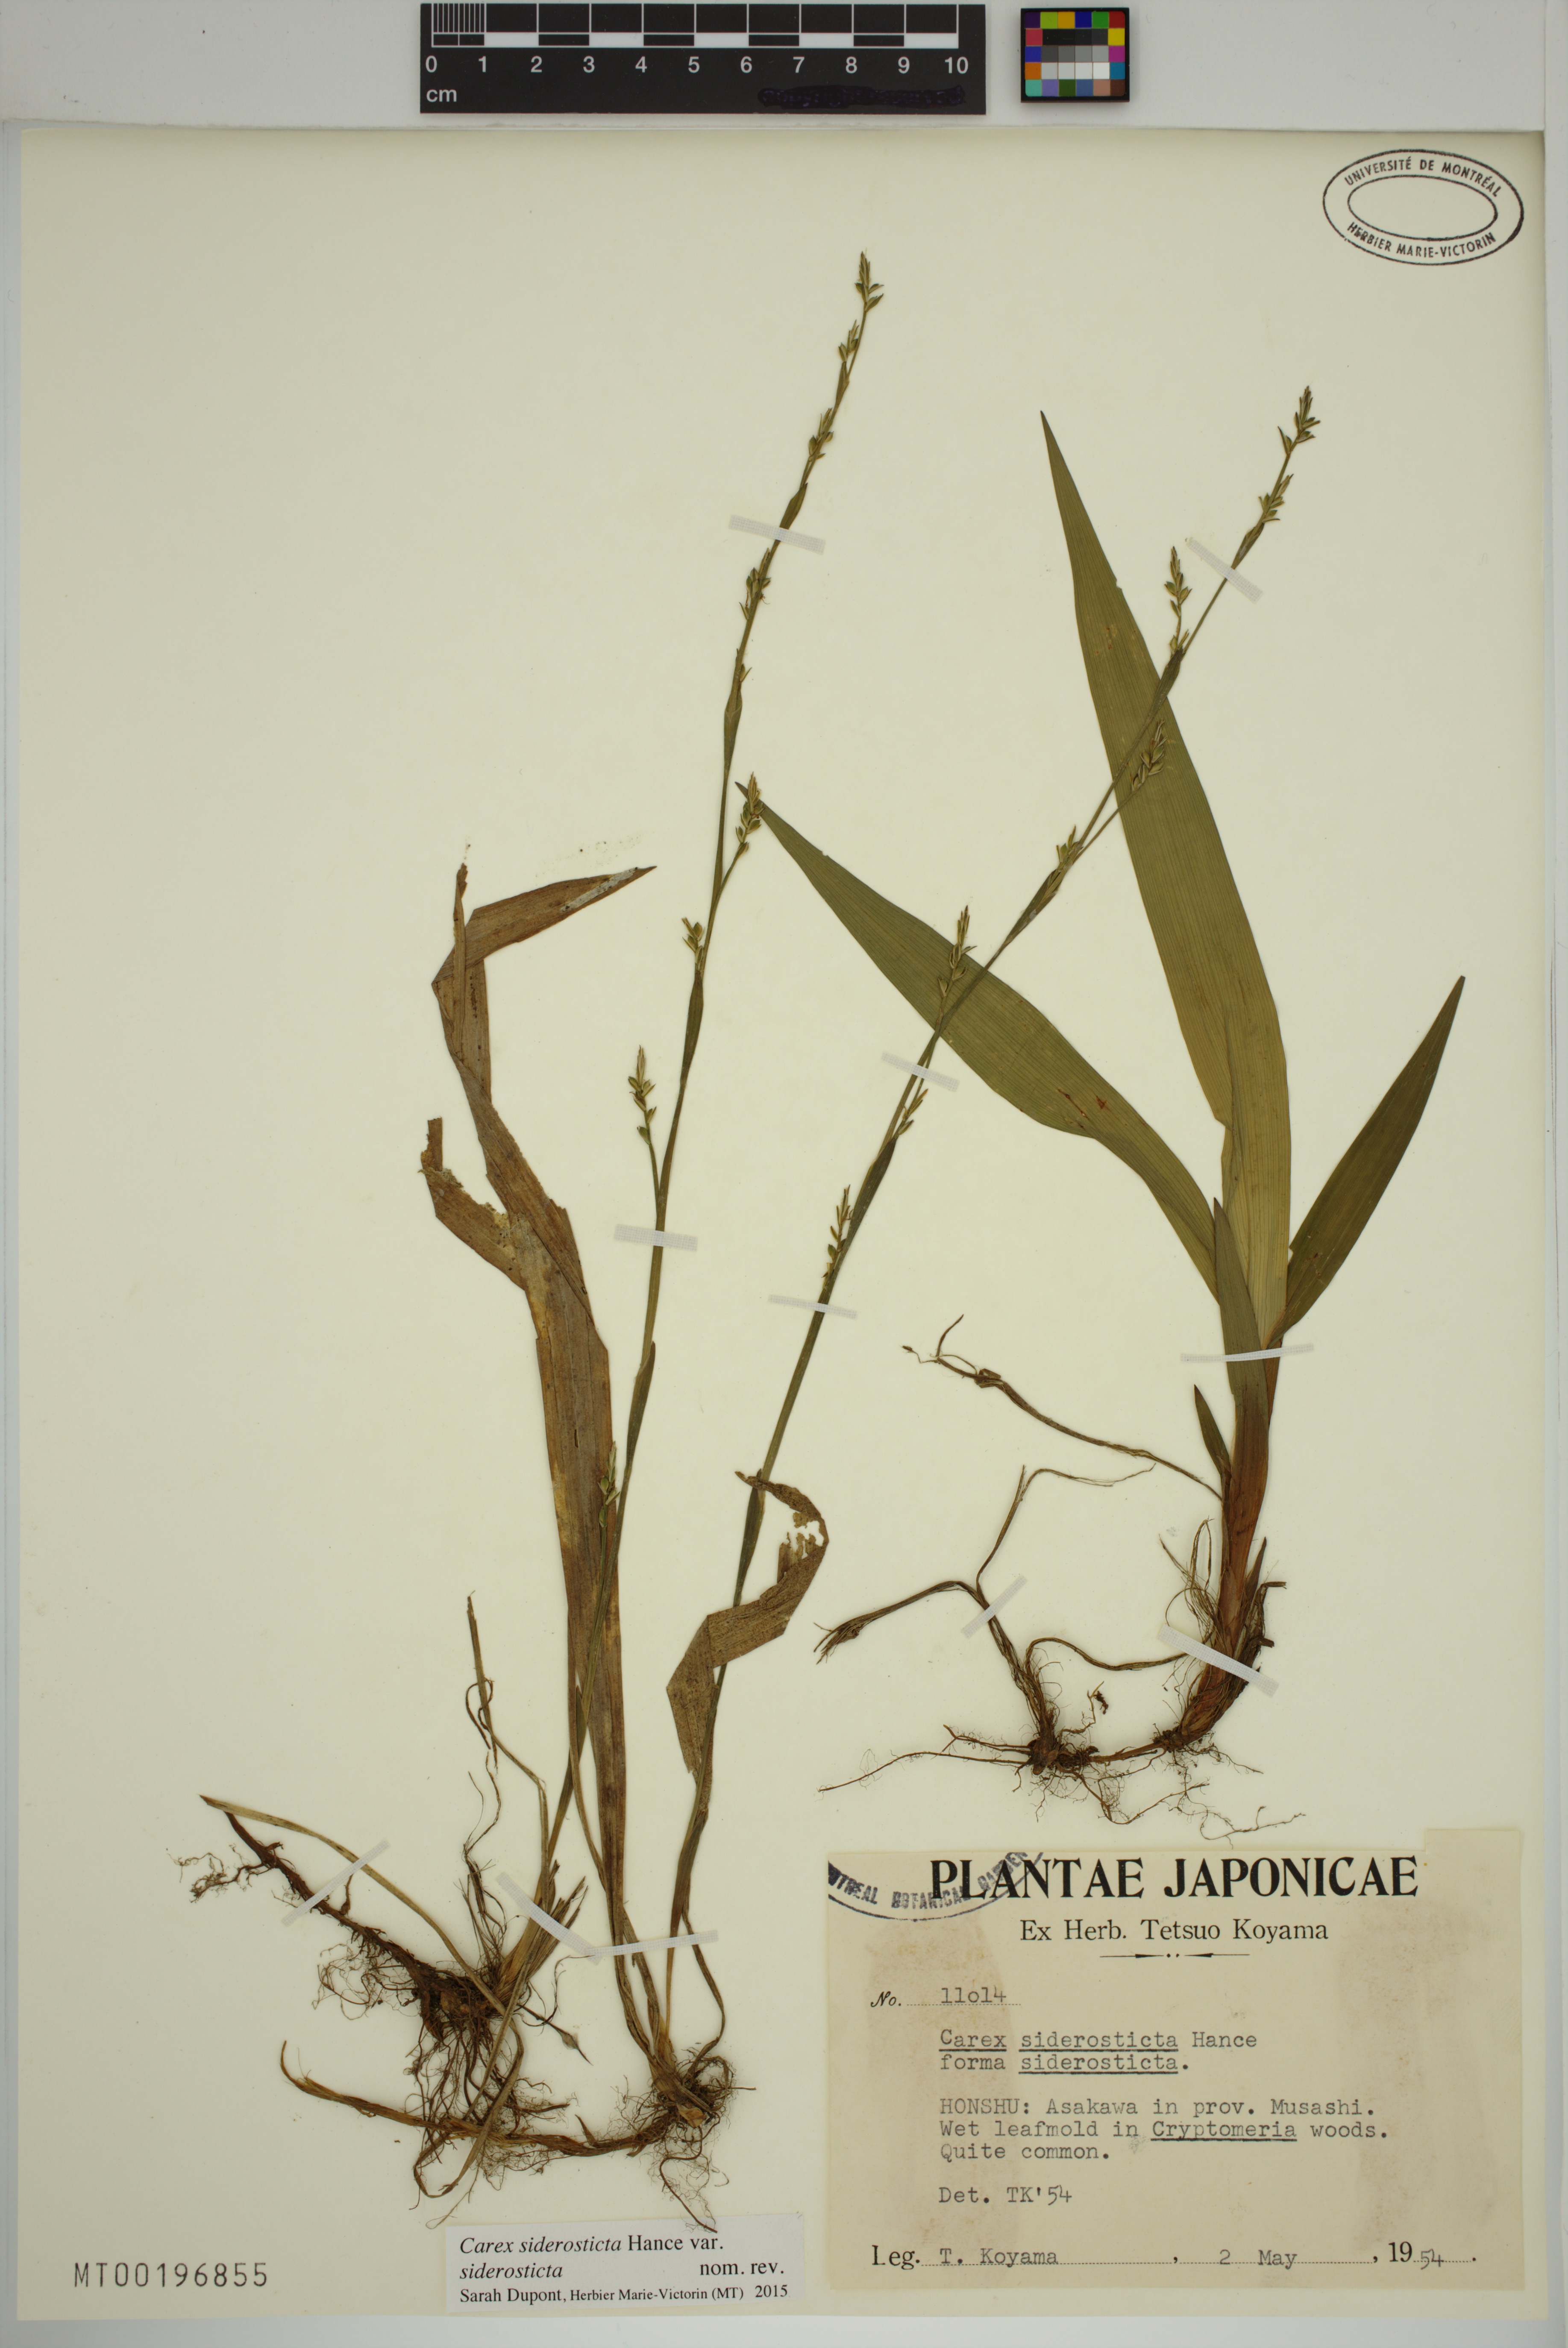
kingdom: Plantae
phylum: Tracheophyta
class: Liliopsida
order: Poales
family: Cyperaceae
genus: Carex
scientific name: Carex siderosticta
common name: Broadleaf sedge
